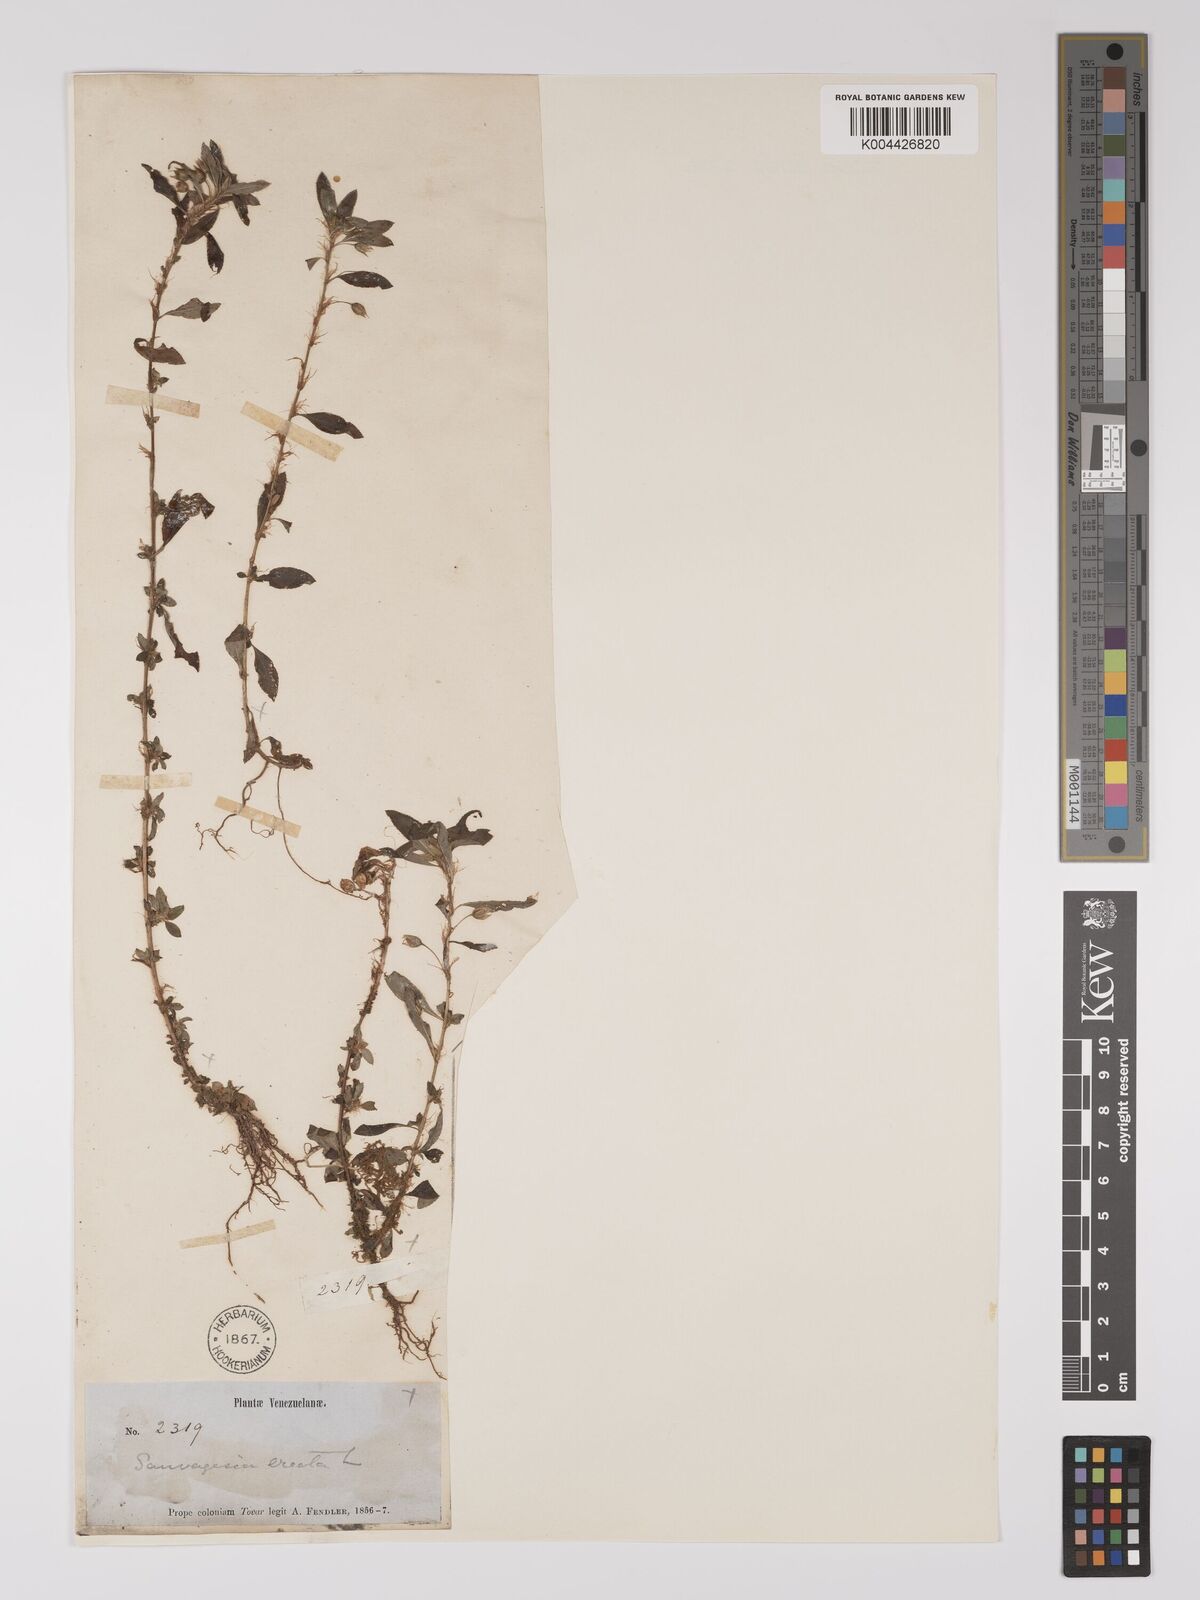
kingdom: Plantae
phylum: Tracheophyta
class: Magnoliopsida
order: Malpighiales
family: Ochnaceae
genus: Sauvagesia
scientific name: Sauvagesia erecta
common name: Creole tea
